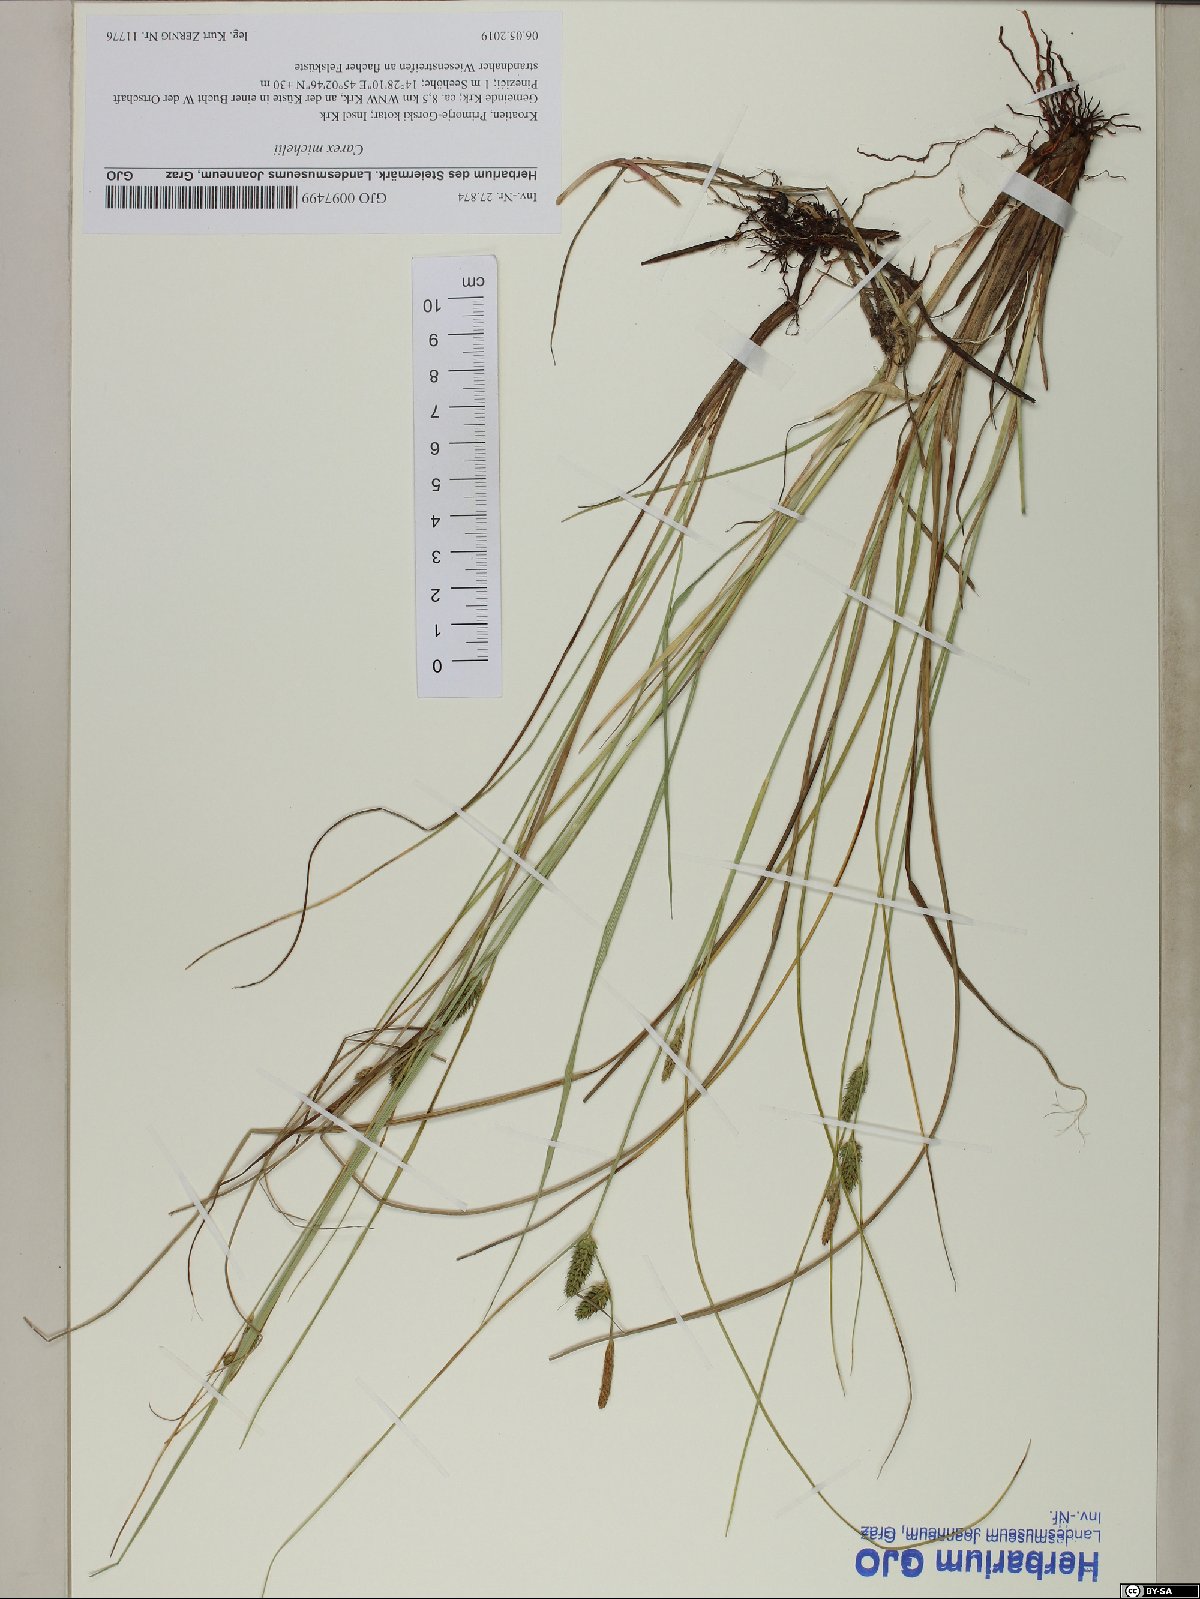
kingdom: Plantae
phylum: Tracheophyta
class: Liliopsida
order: Poales
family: Cyperaceae
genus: Carex
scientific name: Carex distans
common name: Distant sedge
